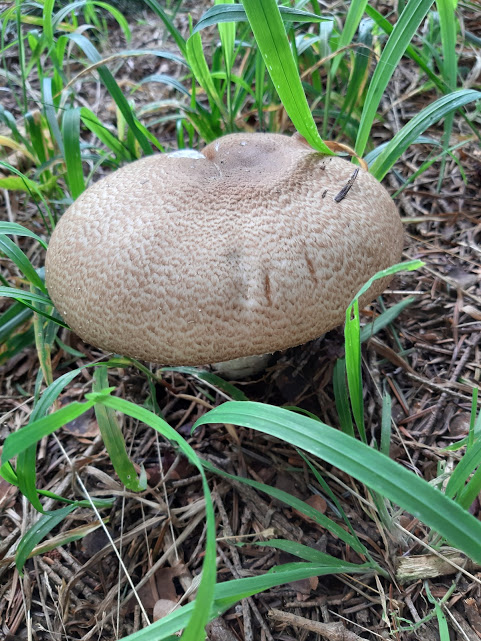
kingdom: Fungi
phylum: Basidiomycota
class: Agaricomycetes
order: Agaricales
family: Agaricaceae
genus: Agaricus
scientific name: Agaricus augustus
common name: prægtig champignon
